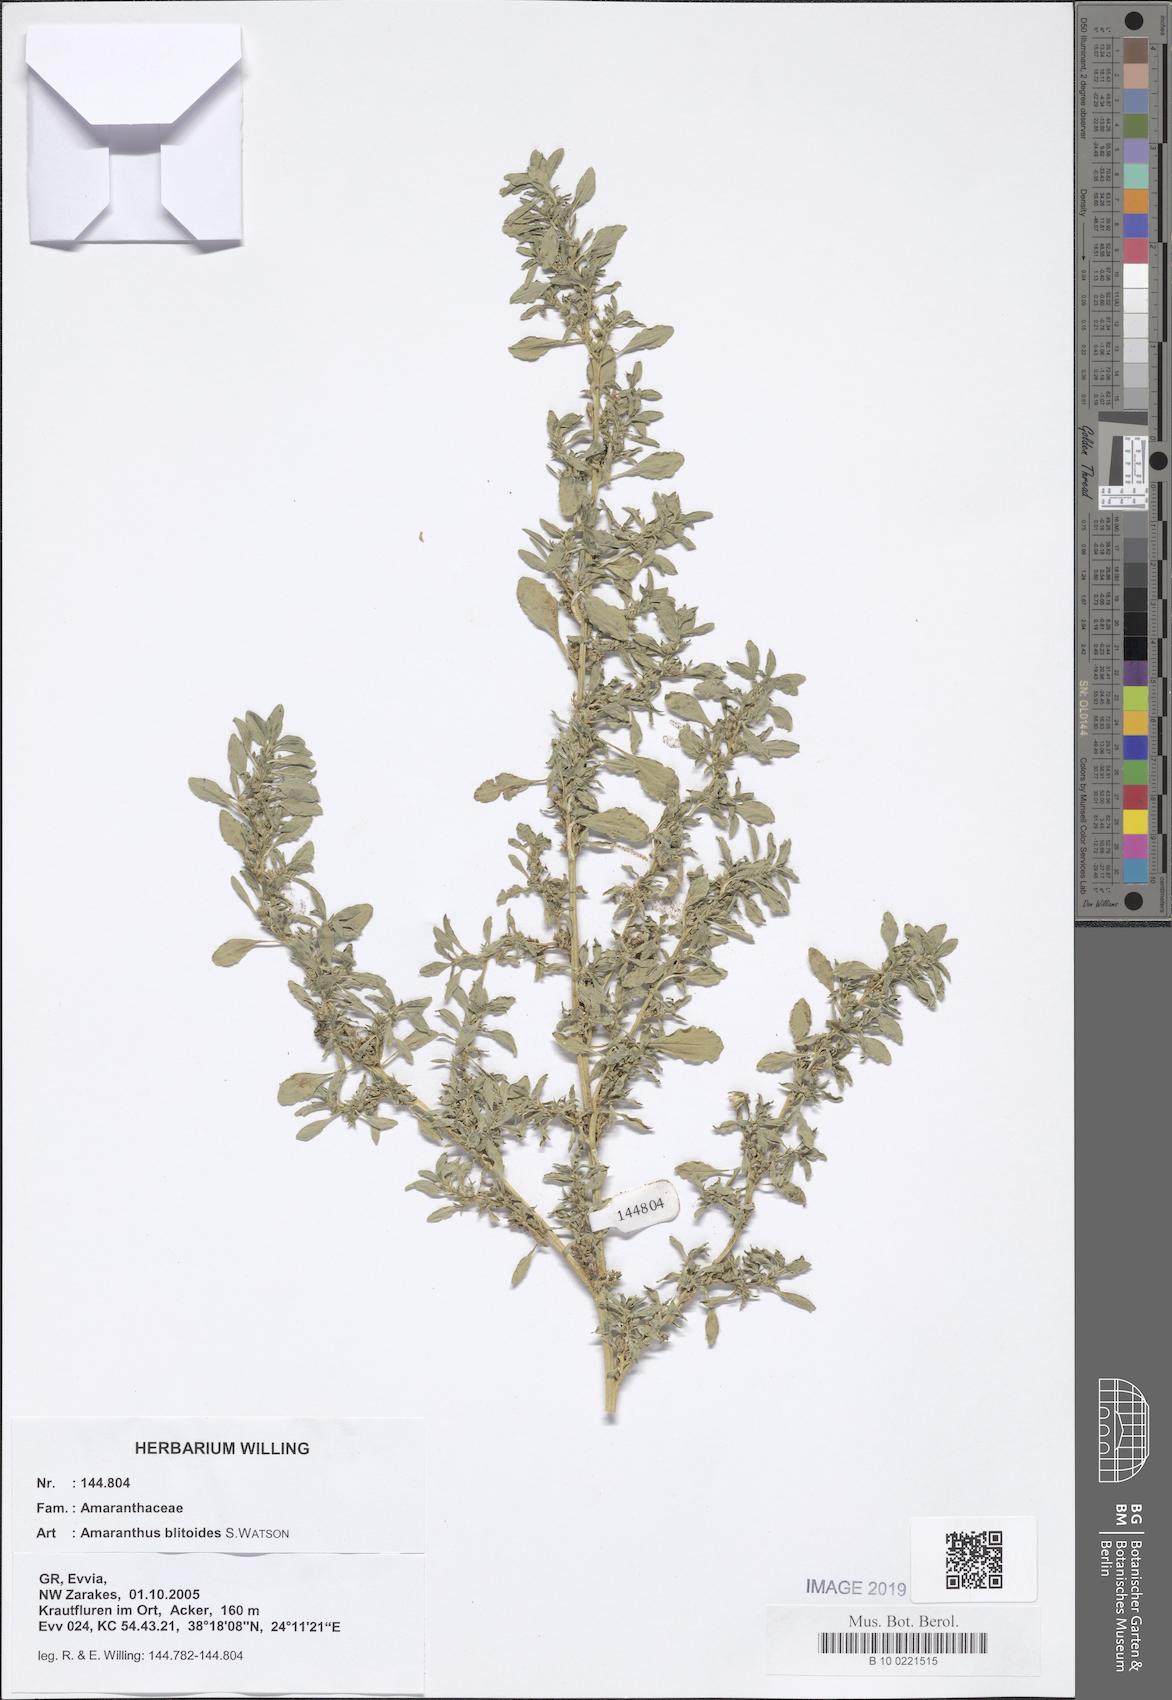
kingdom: Plantae
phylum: Tracheophyta
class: Magnoliopsida
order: Caryophyllales
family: Amaranthaceae
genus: Amaranthus
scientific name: Amaranthus blitoides
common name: Prostrate pigweed
